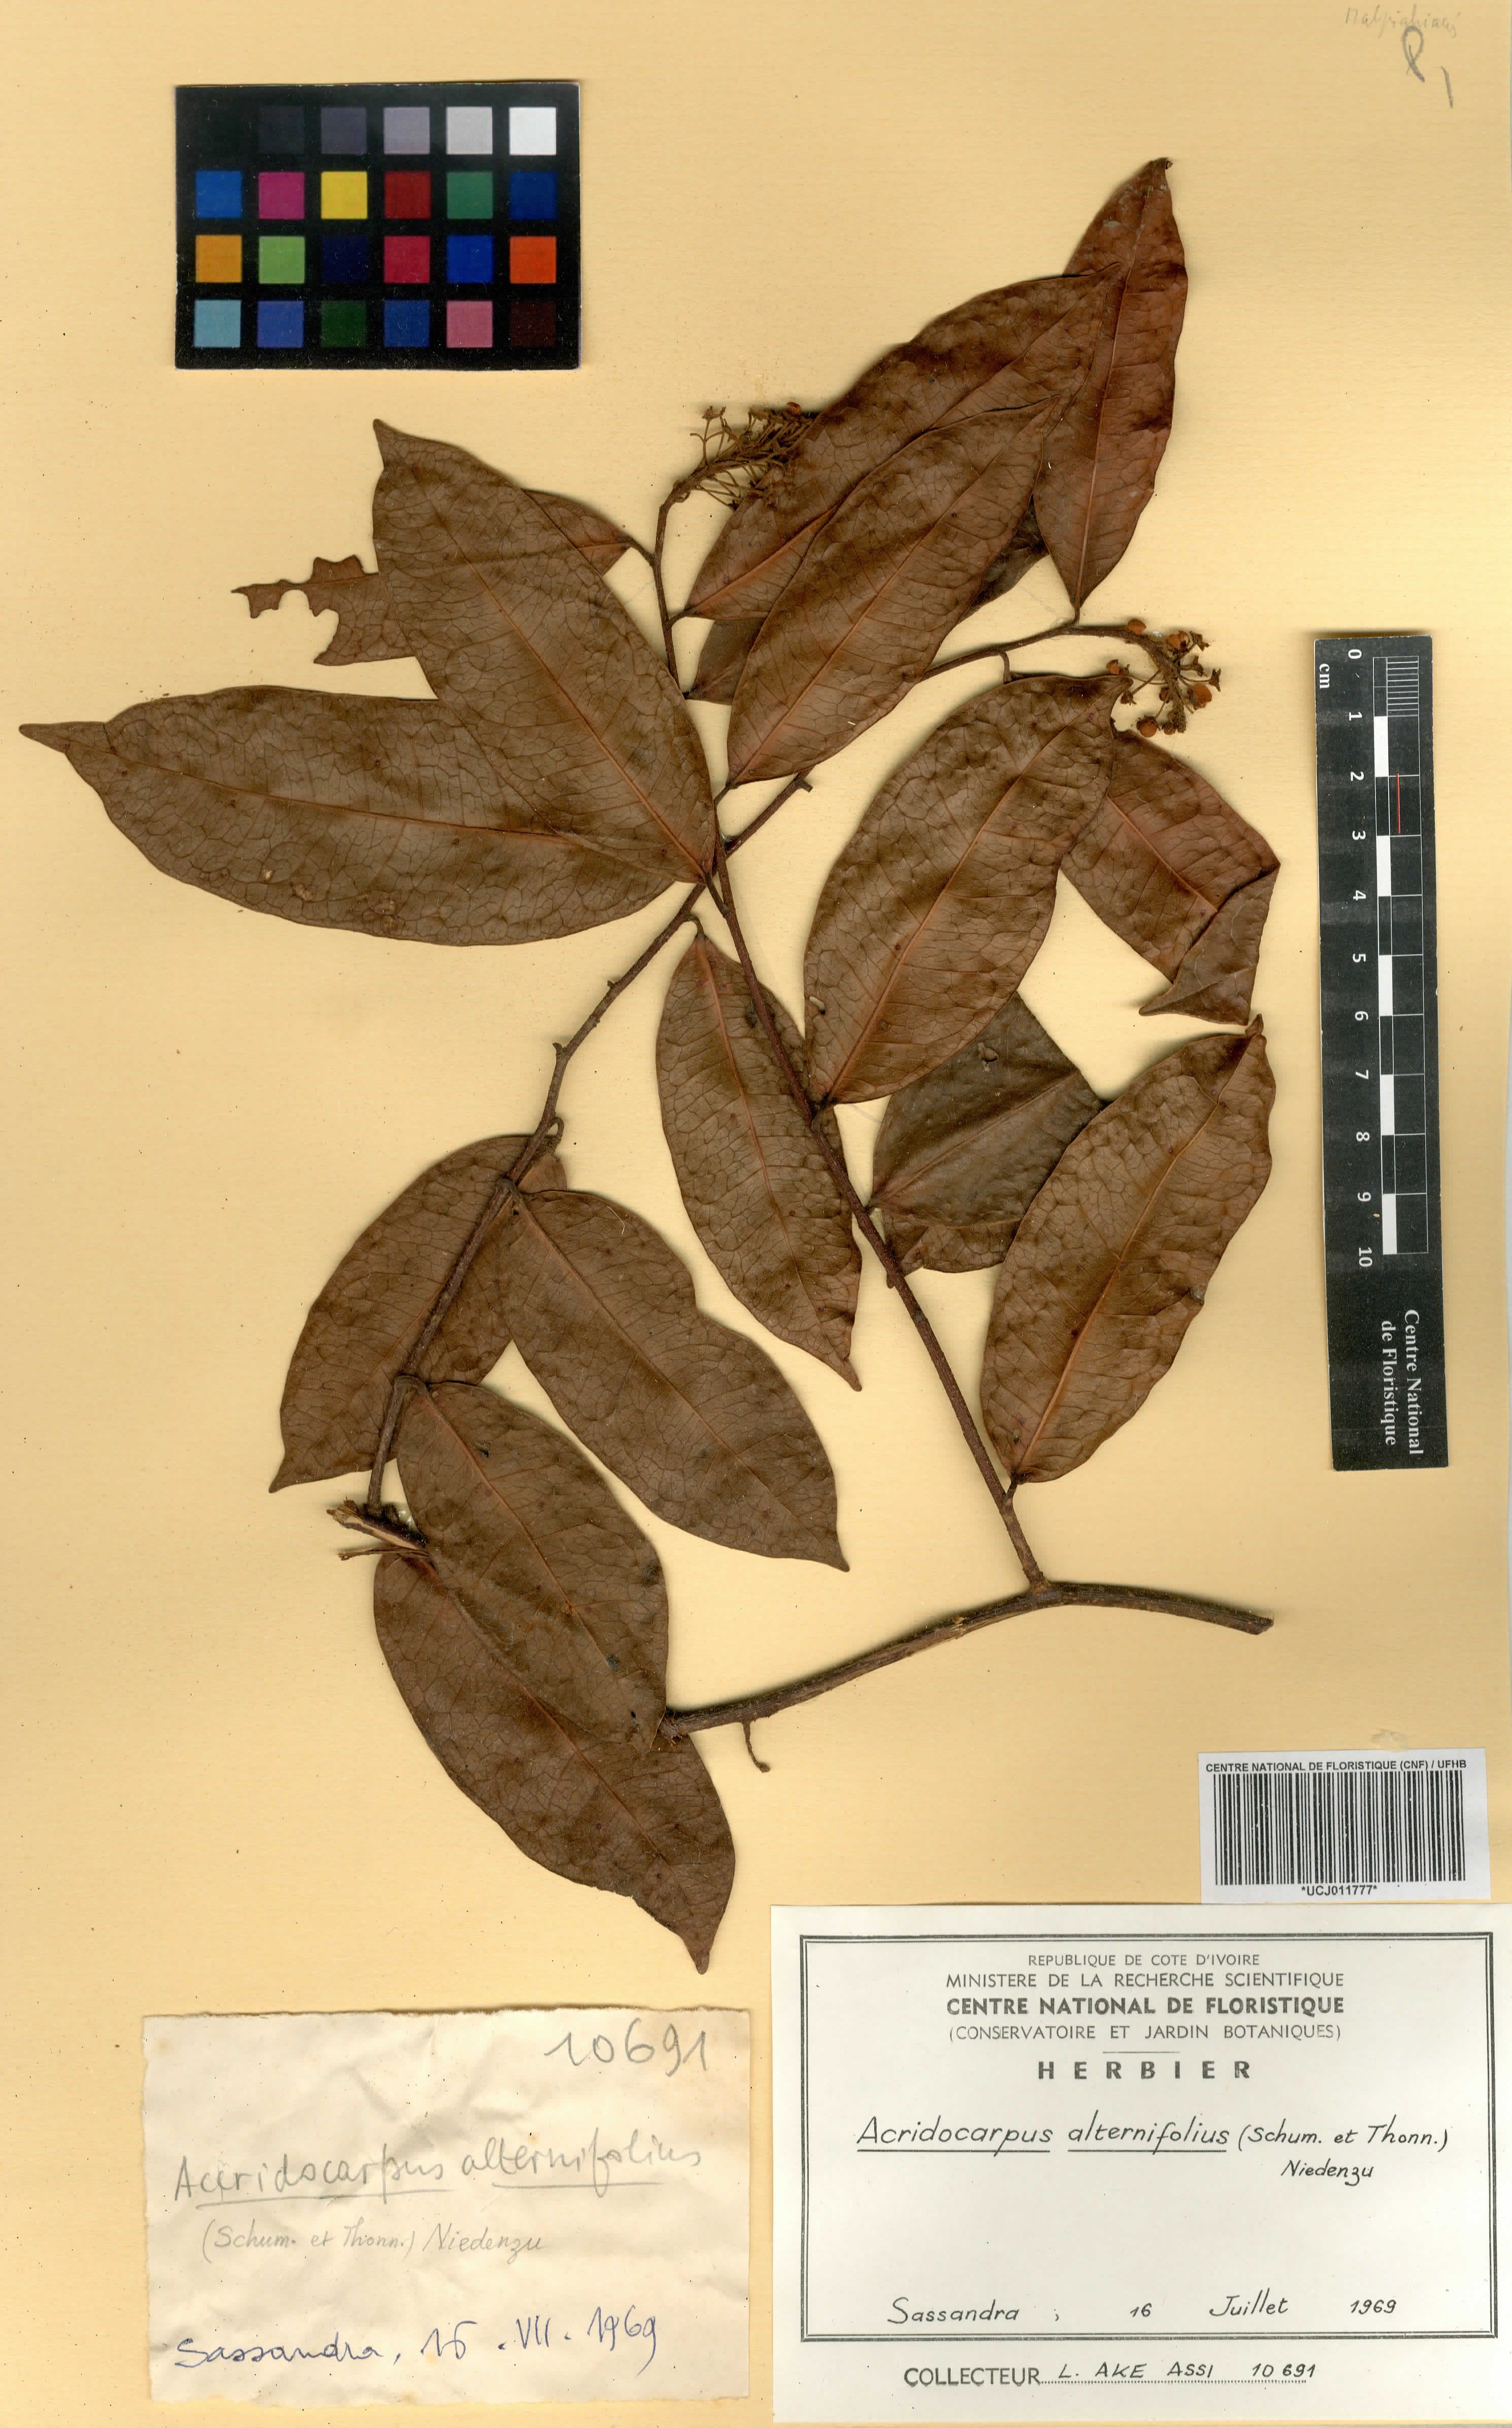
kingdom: Plantae
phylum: Tracheophyta
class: Magnoliopsida
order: Malpighiales
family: Malpighiaceae
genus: Acridocarpus
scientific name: Acridocarpus alternifolius
